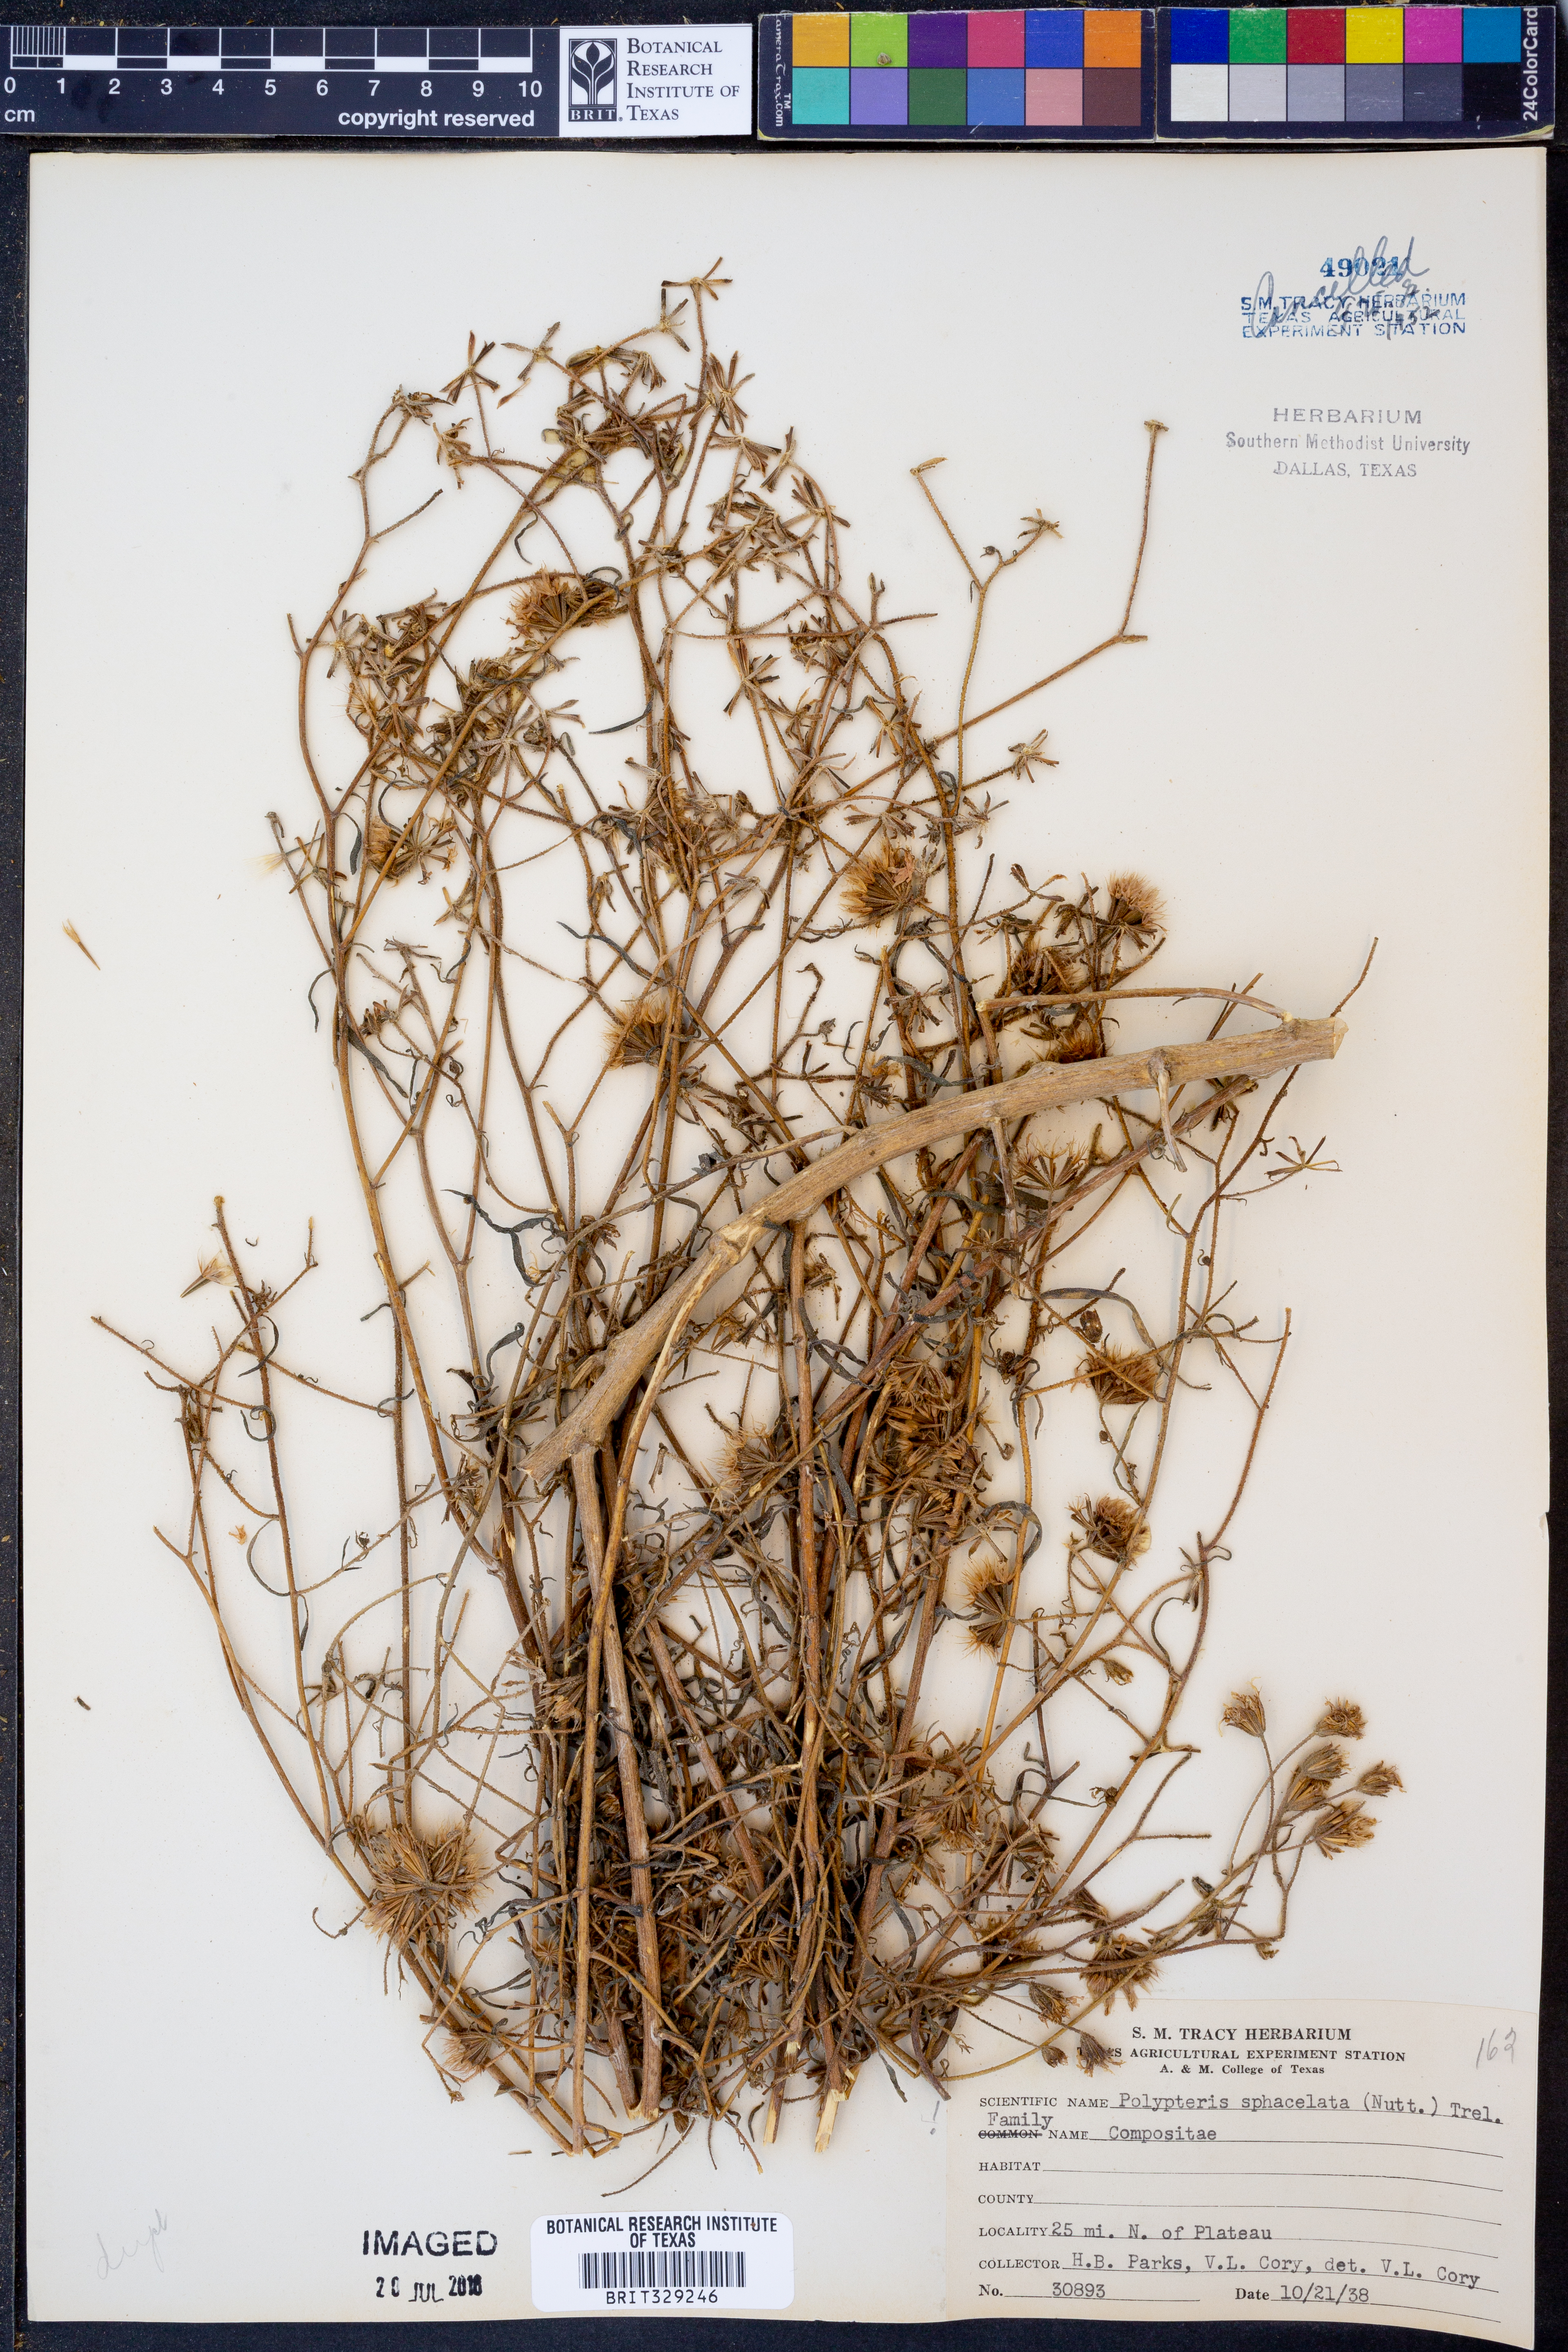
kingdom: Plantae
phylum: Tracheophyta
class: Magnoliopsida
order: Asterales
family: Asteraceae
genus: Palafoxia
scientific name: Palafoxia sphacelata
